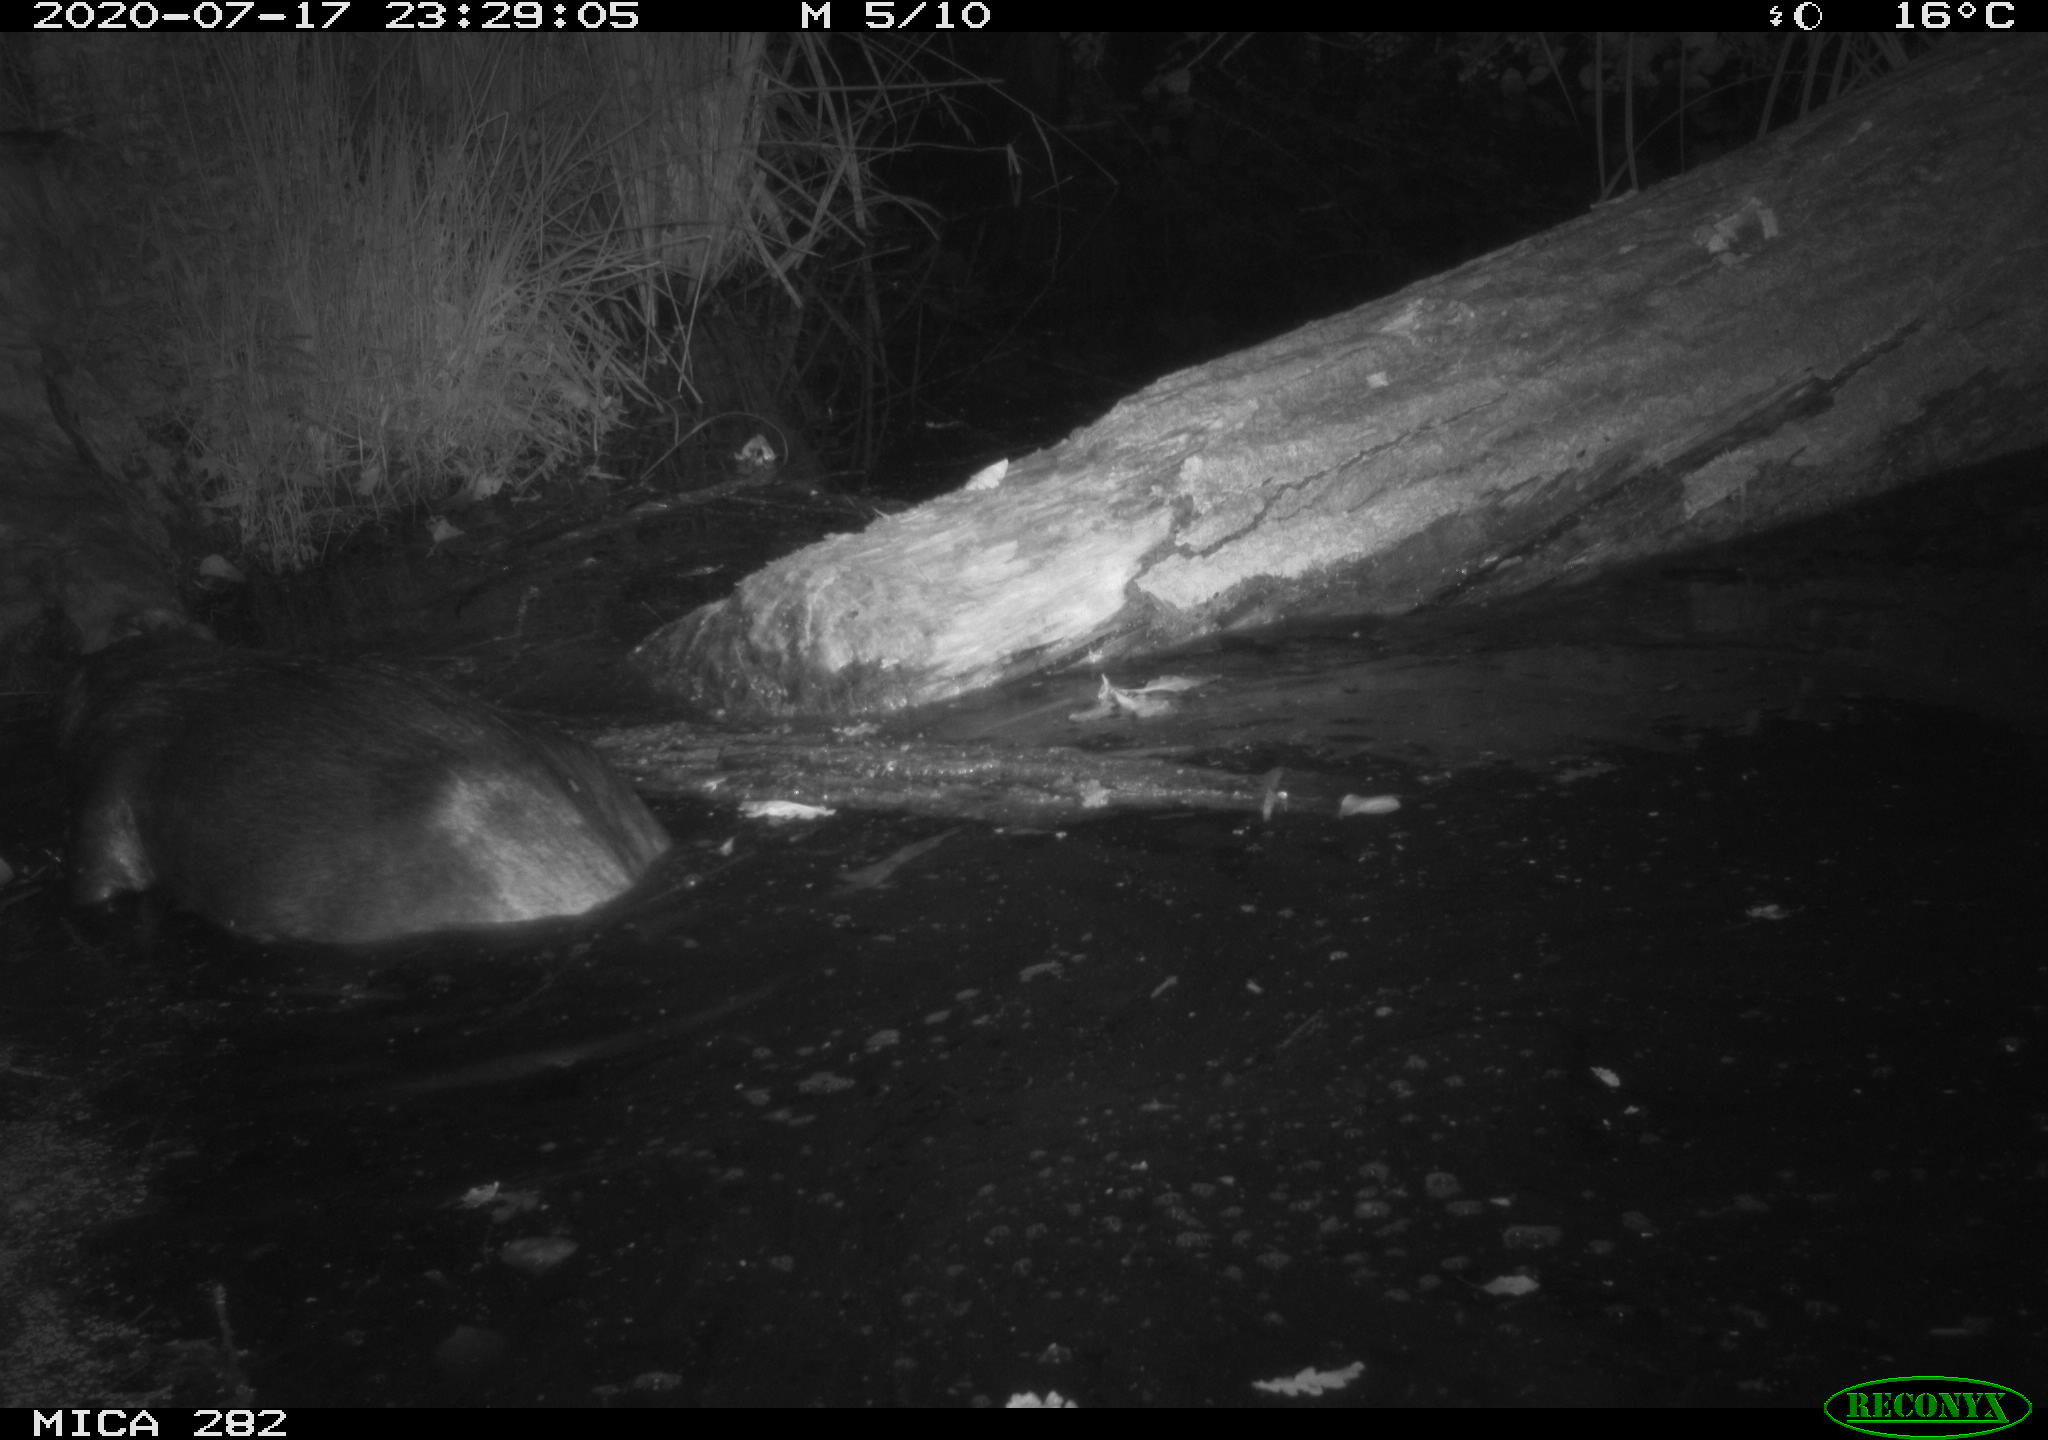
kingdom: Animalia
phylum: Chordata
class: Mammalia
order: Rodentia
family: Castoridae
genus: Castor
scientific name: Castor fiber
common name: Eurasian beaver
